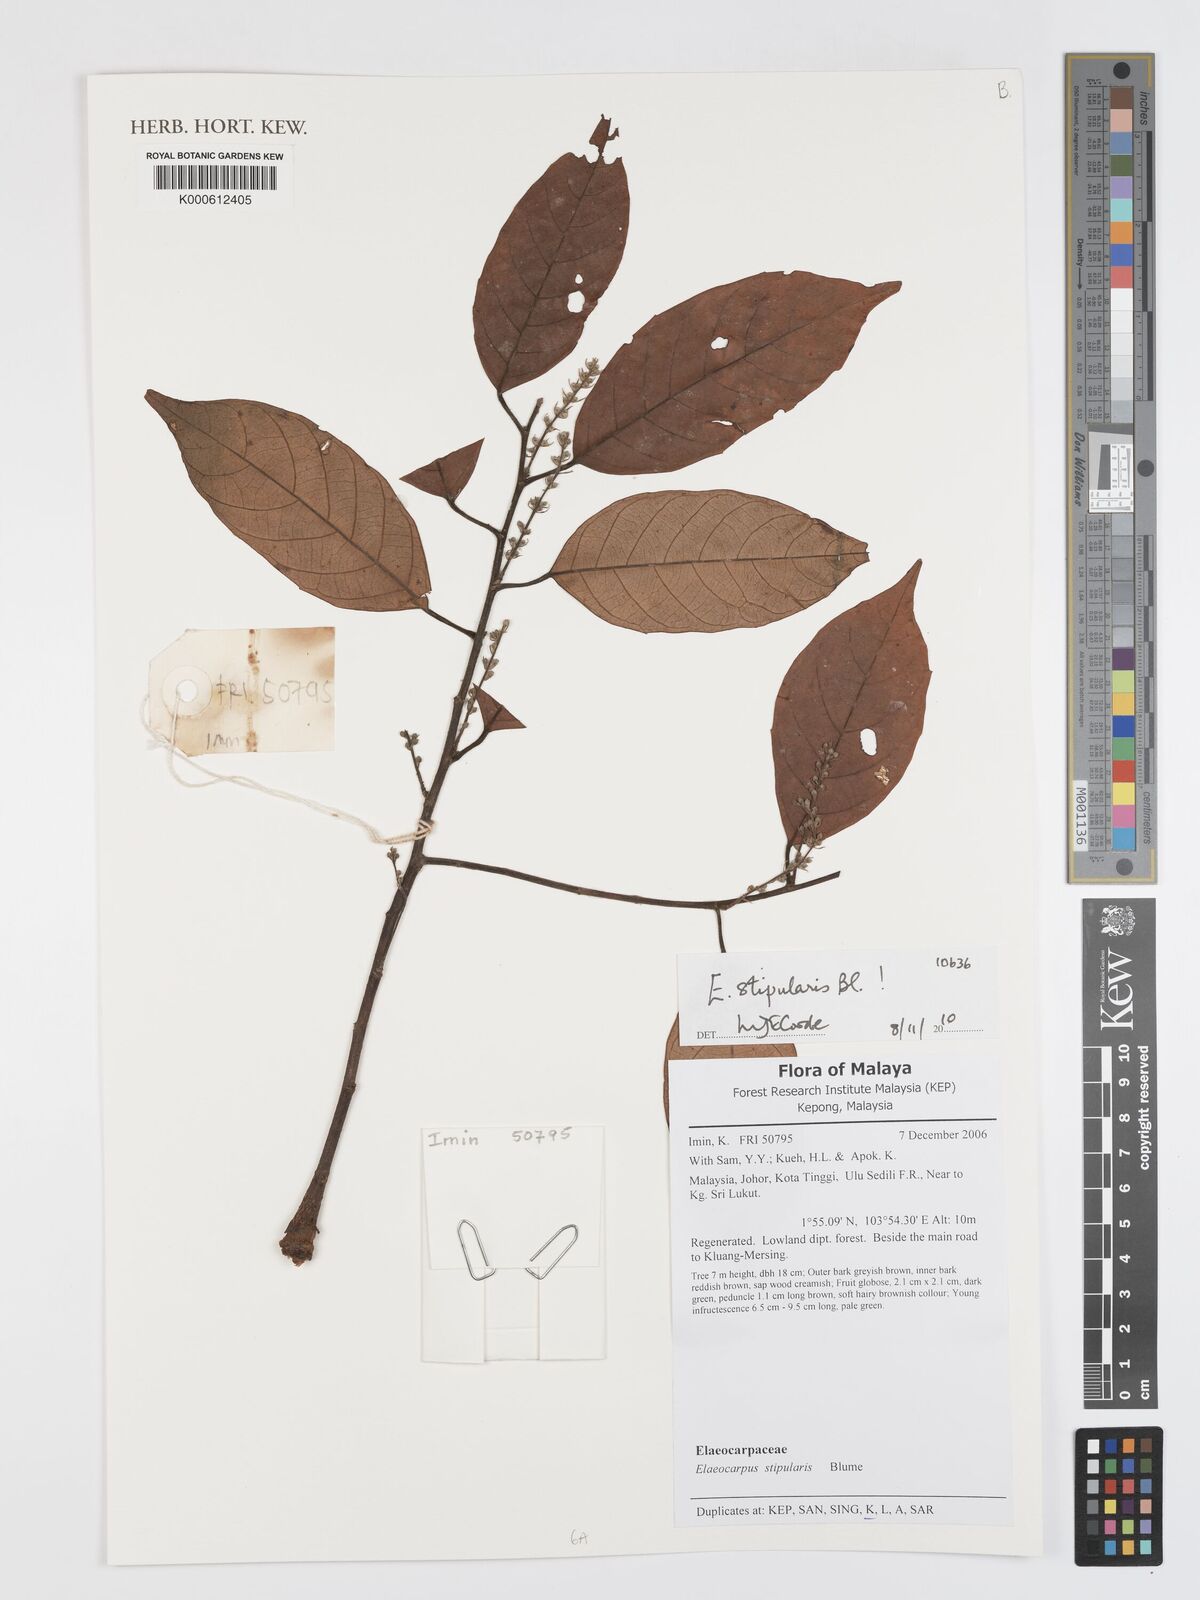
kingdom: Plantae
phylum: Tracheophyta
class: Magnoliopsida
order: Oxalidales
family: Elaeocarpaceae
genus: Elaeocarpus
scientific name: Elaeocarpus stipularis
